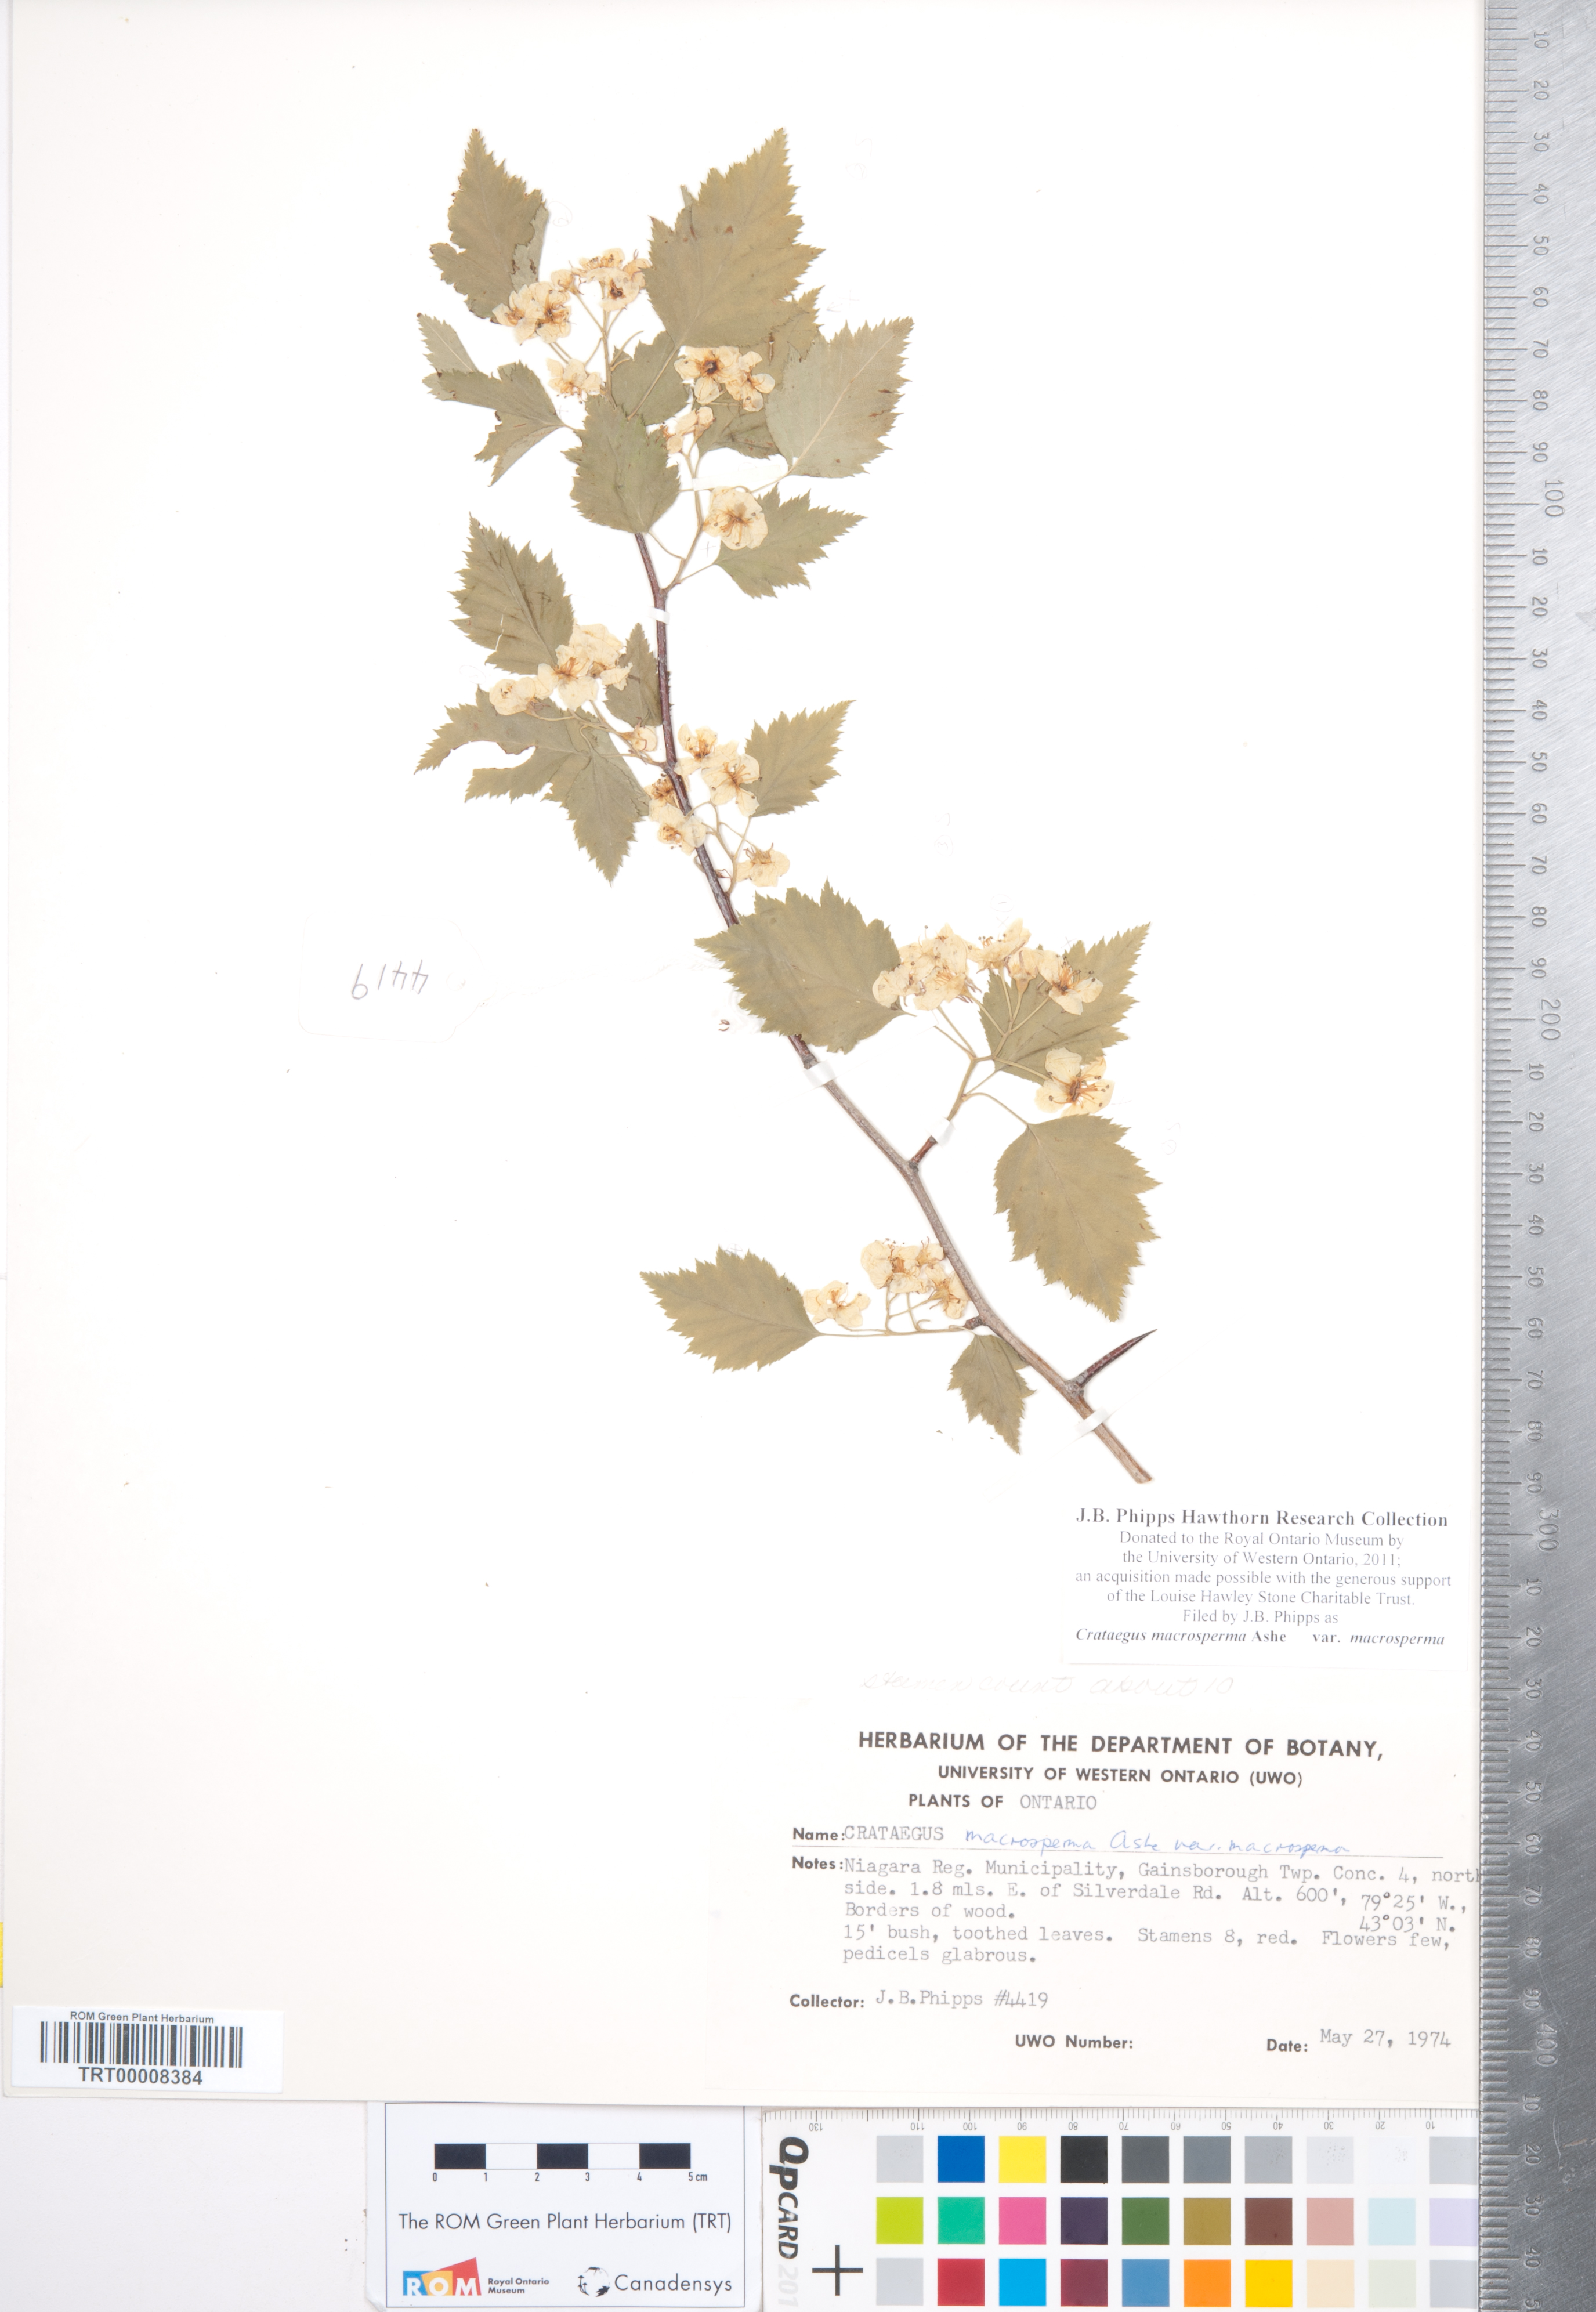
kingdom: Plantae
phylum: Tracheophyta
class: Magnoliopsida
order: Rosales
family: Rosaceae
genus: Crataegus
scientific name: Crataegus macrosperma
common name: Variable hawthorn
